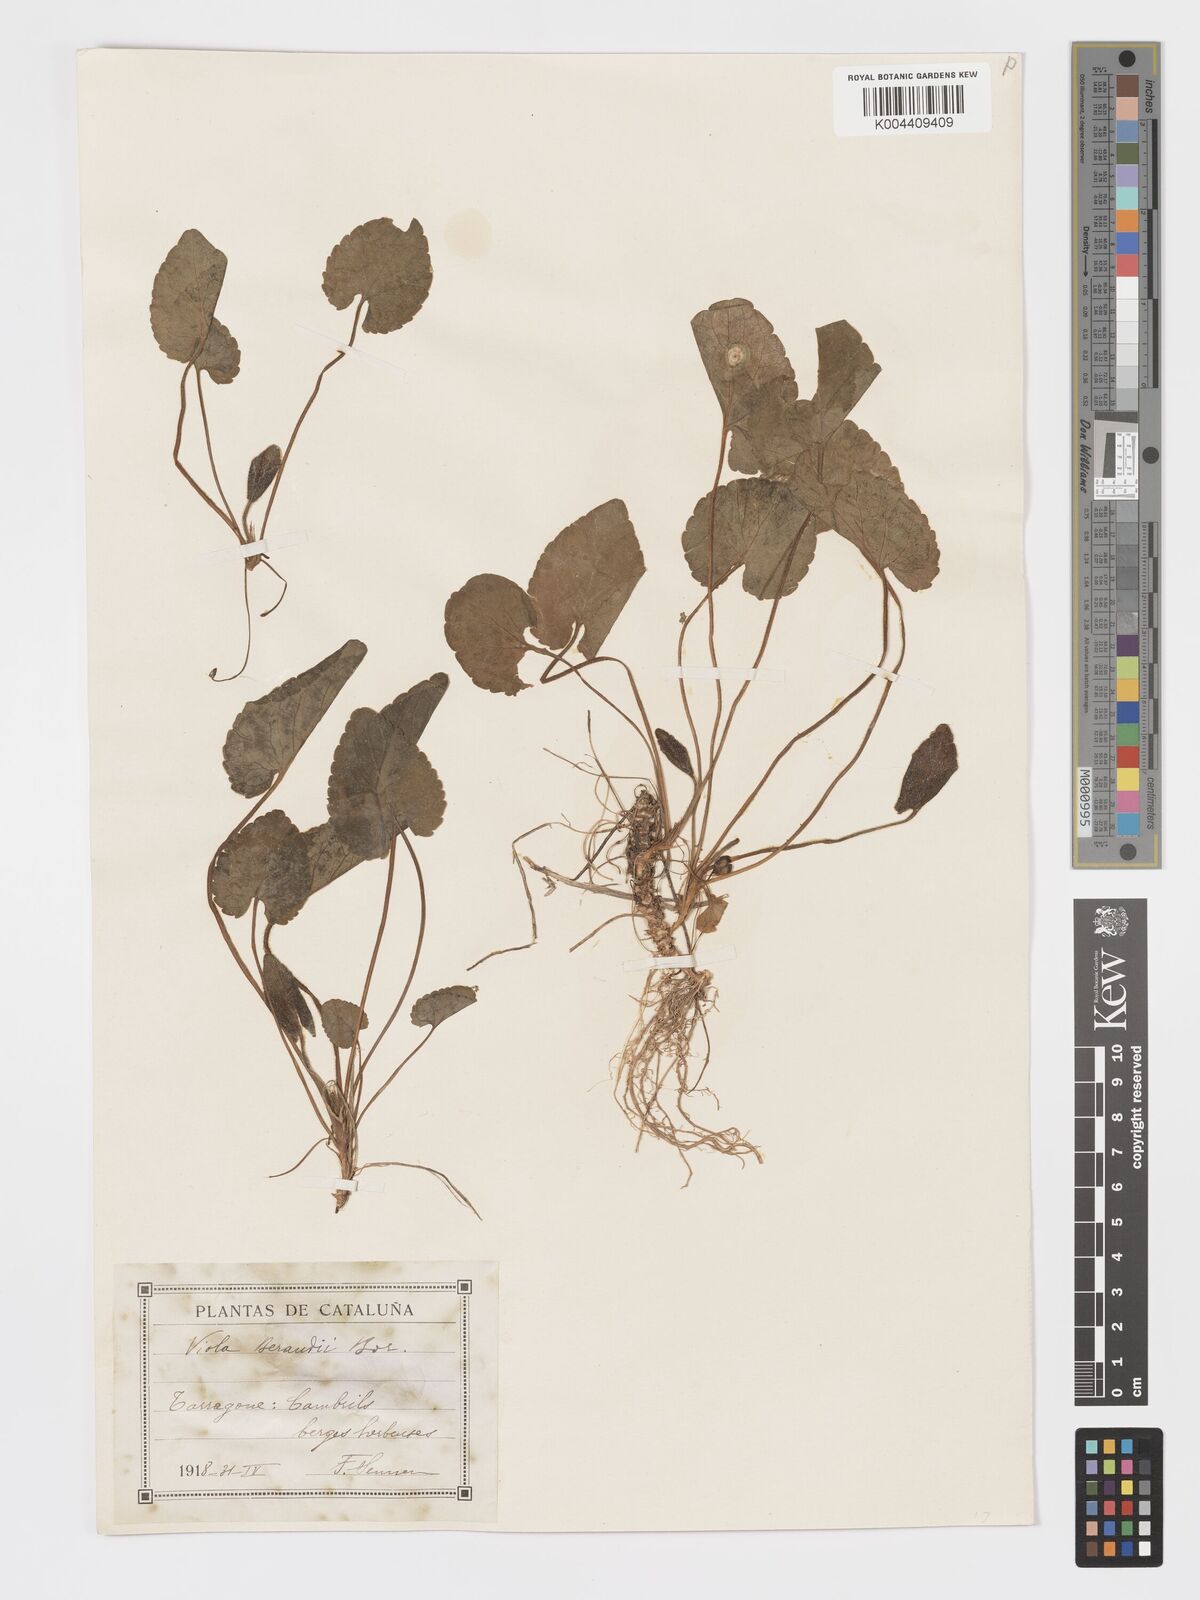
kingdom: Plantae
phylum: Tracheophyta
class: Magnoliopsida
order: Malpighiales
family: Violaceae
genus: Viola
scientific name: Viola alba
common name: White violet
